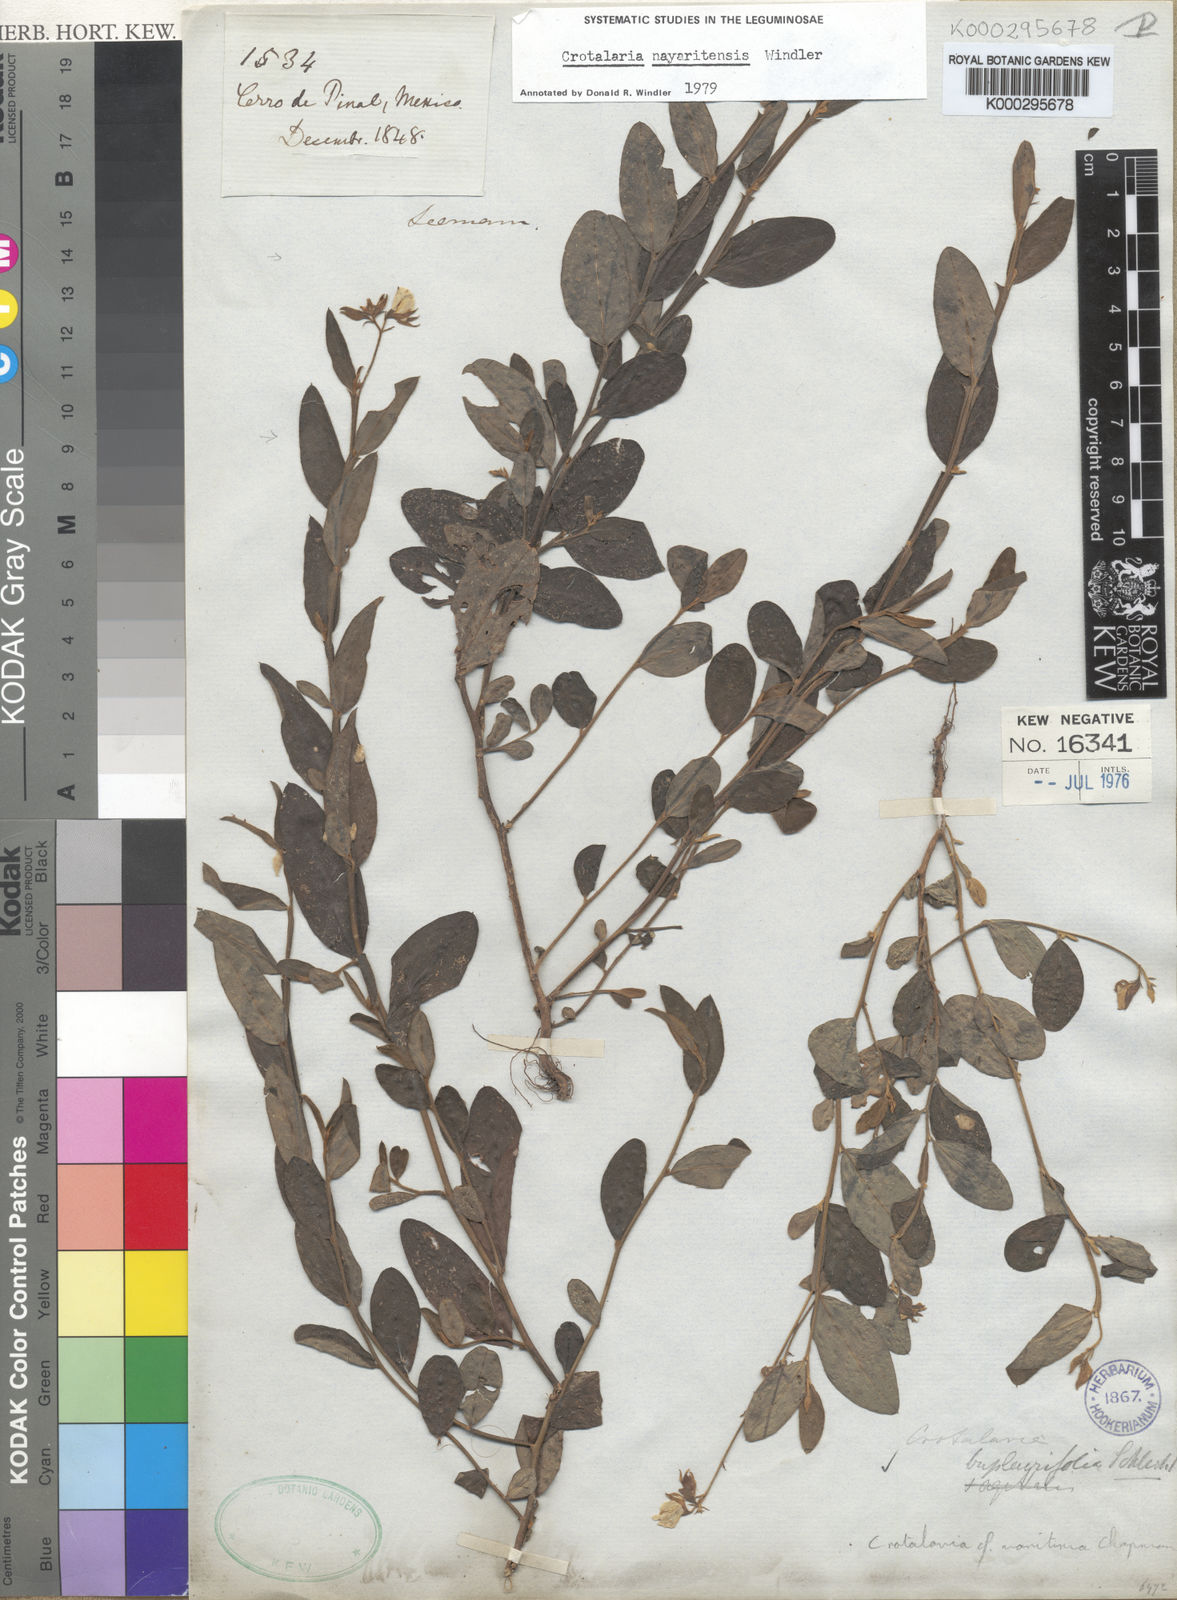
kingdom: Plantae
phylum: Tracheophyta
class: Magnoliopsida
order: Fabales
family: Fabaceae
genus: Crotalaria
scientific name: Crotalaria bupleurifolia
